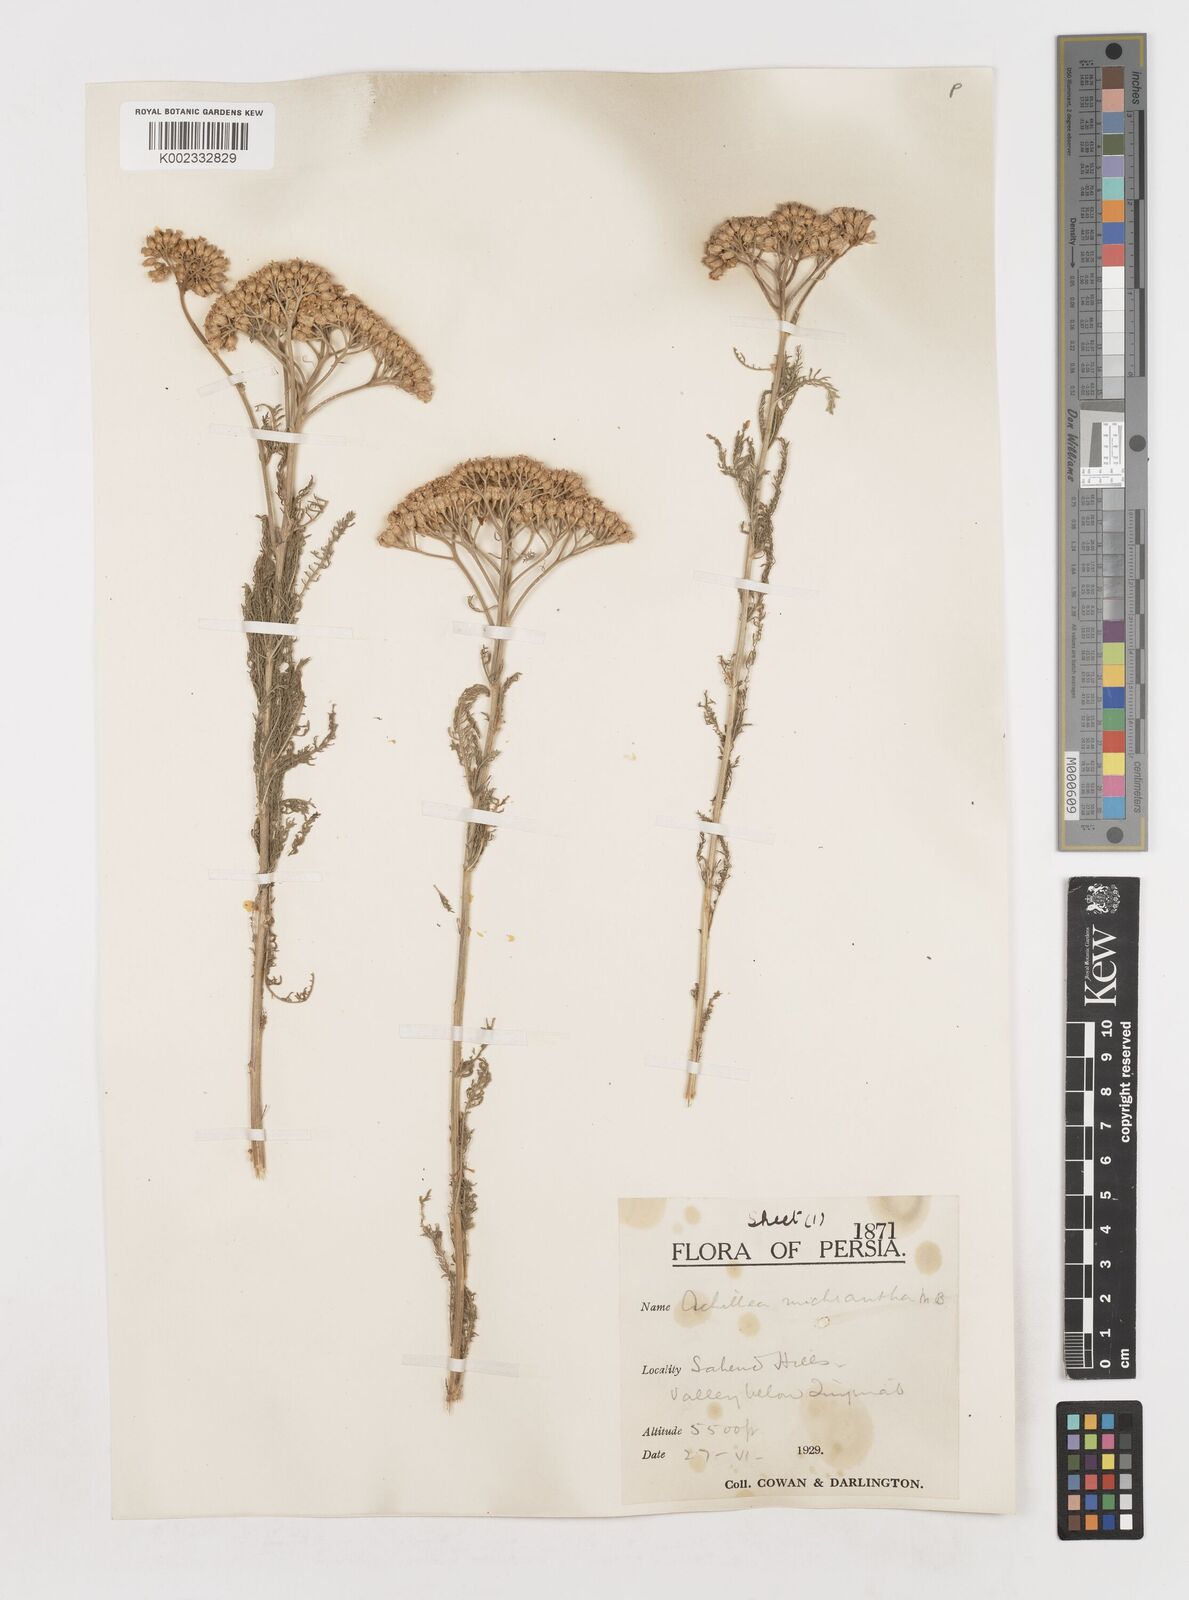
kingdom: Plantae
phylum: Tracheophyta
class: Magnoliopsida
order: Asterales
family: Asteraceae
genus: Achillea
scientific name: Achillea arabica
